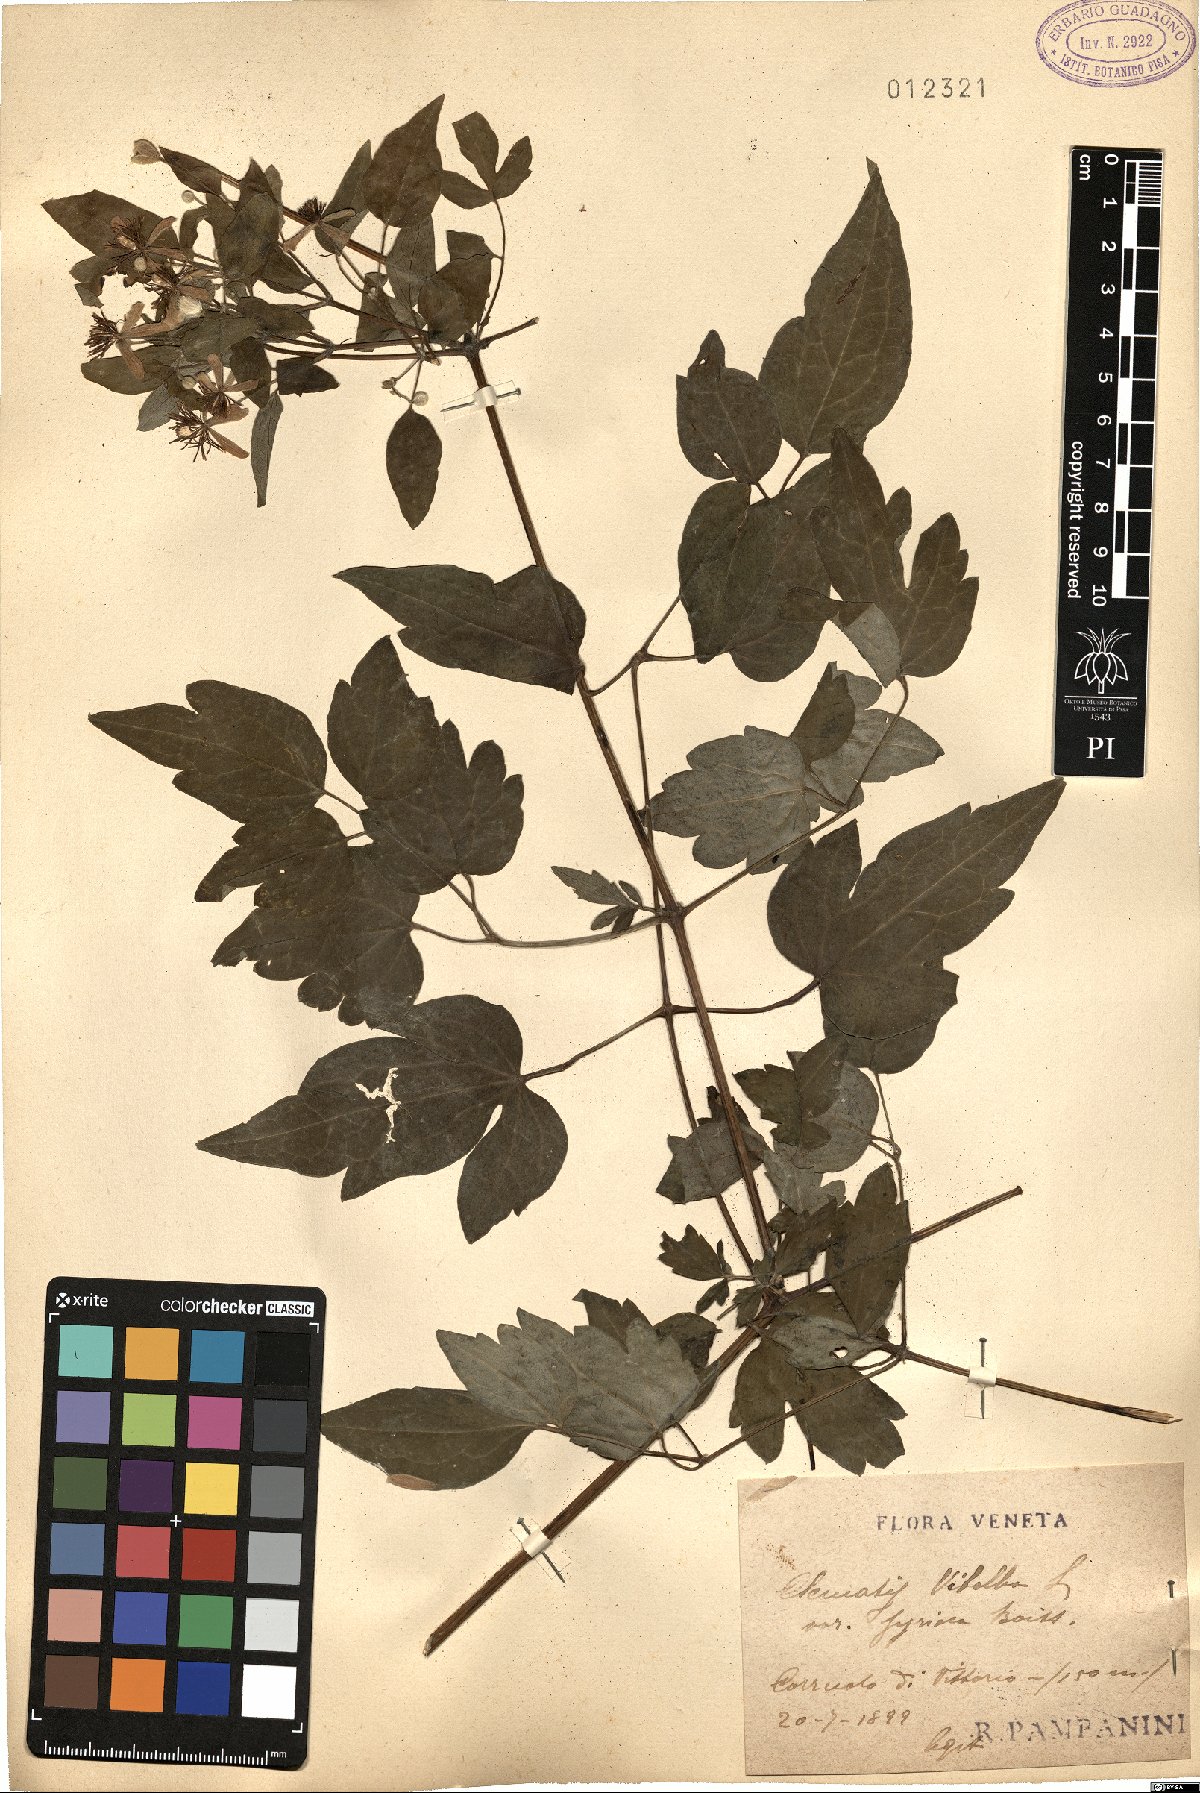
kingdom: Plantae
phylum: Tracheophyta
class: Magnoliopsida
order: Ranunculales
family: Ranunculaceae
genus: Clematis
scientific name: Clematis vitalba
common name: Evergreen clematis
